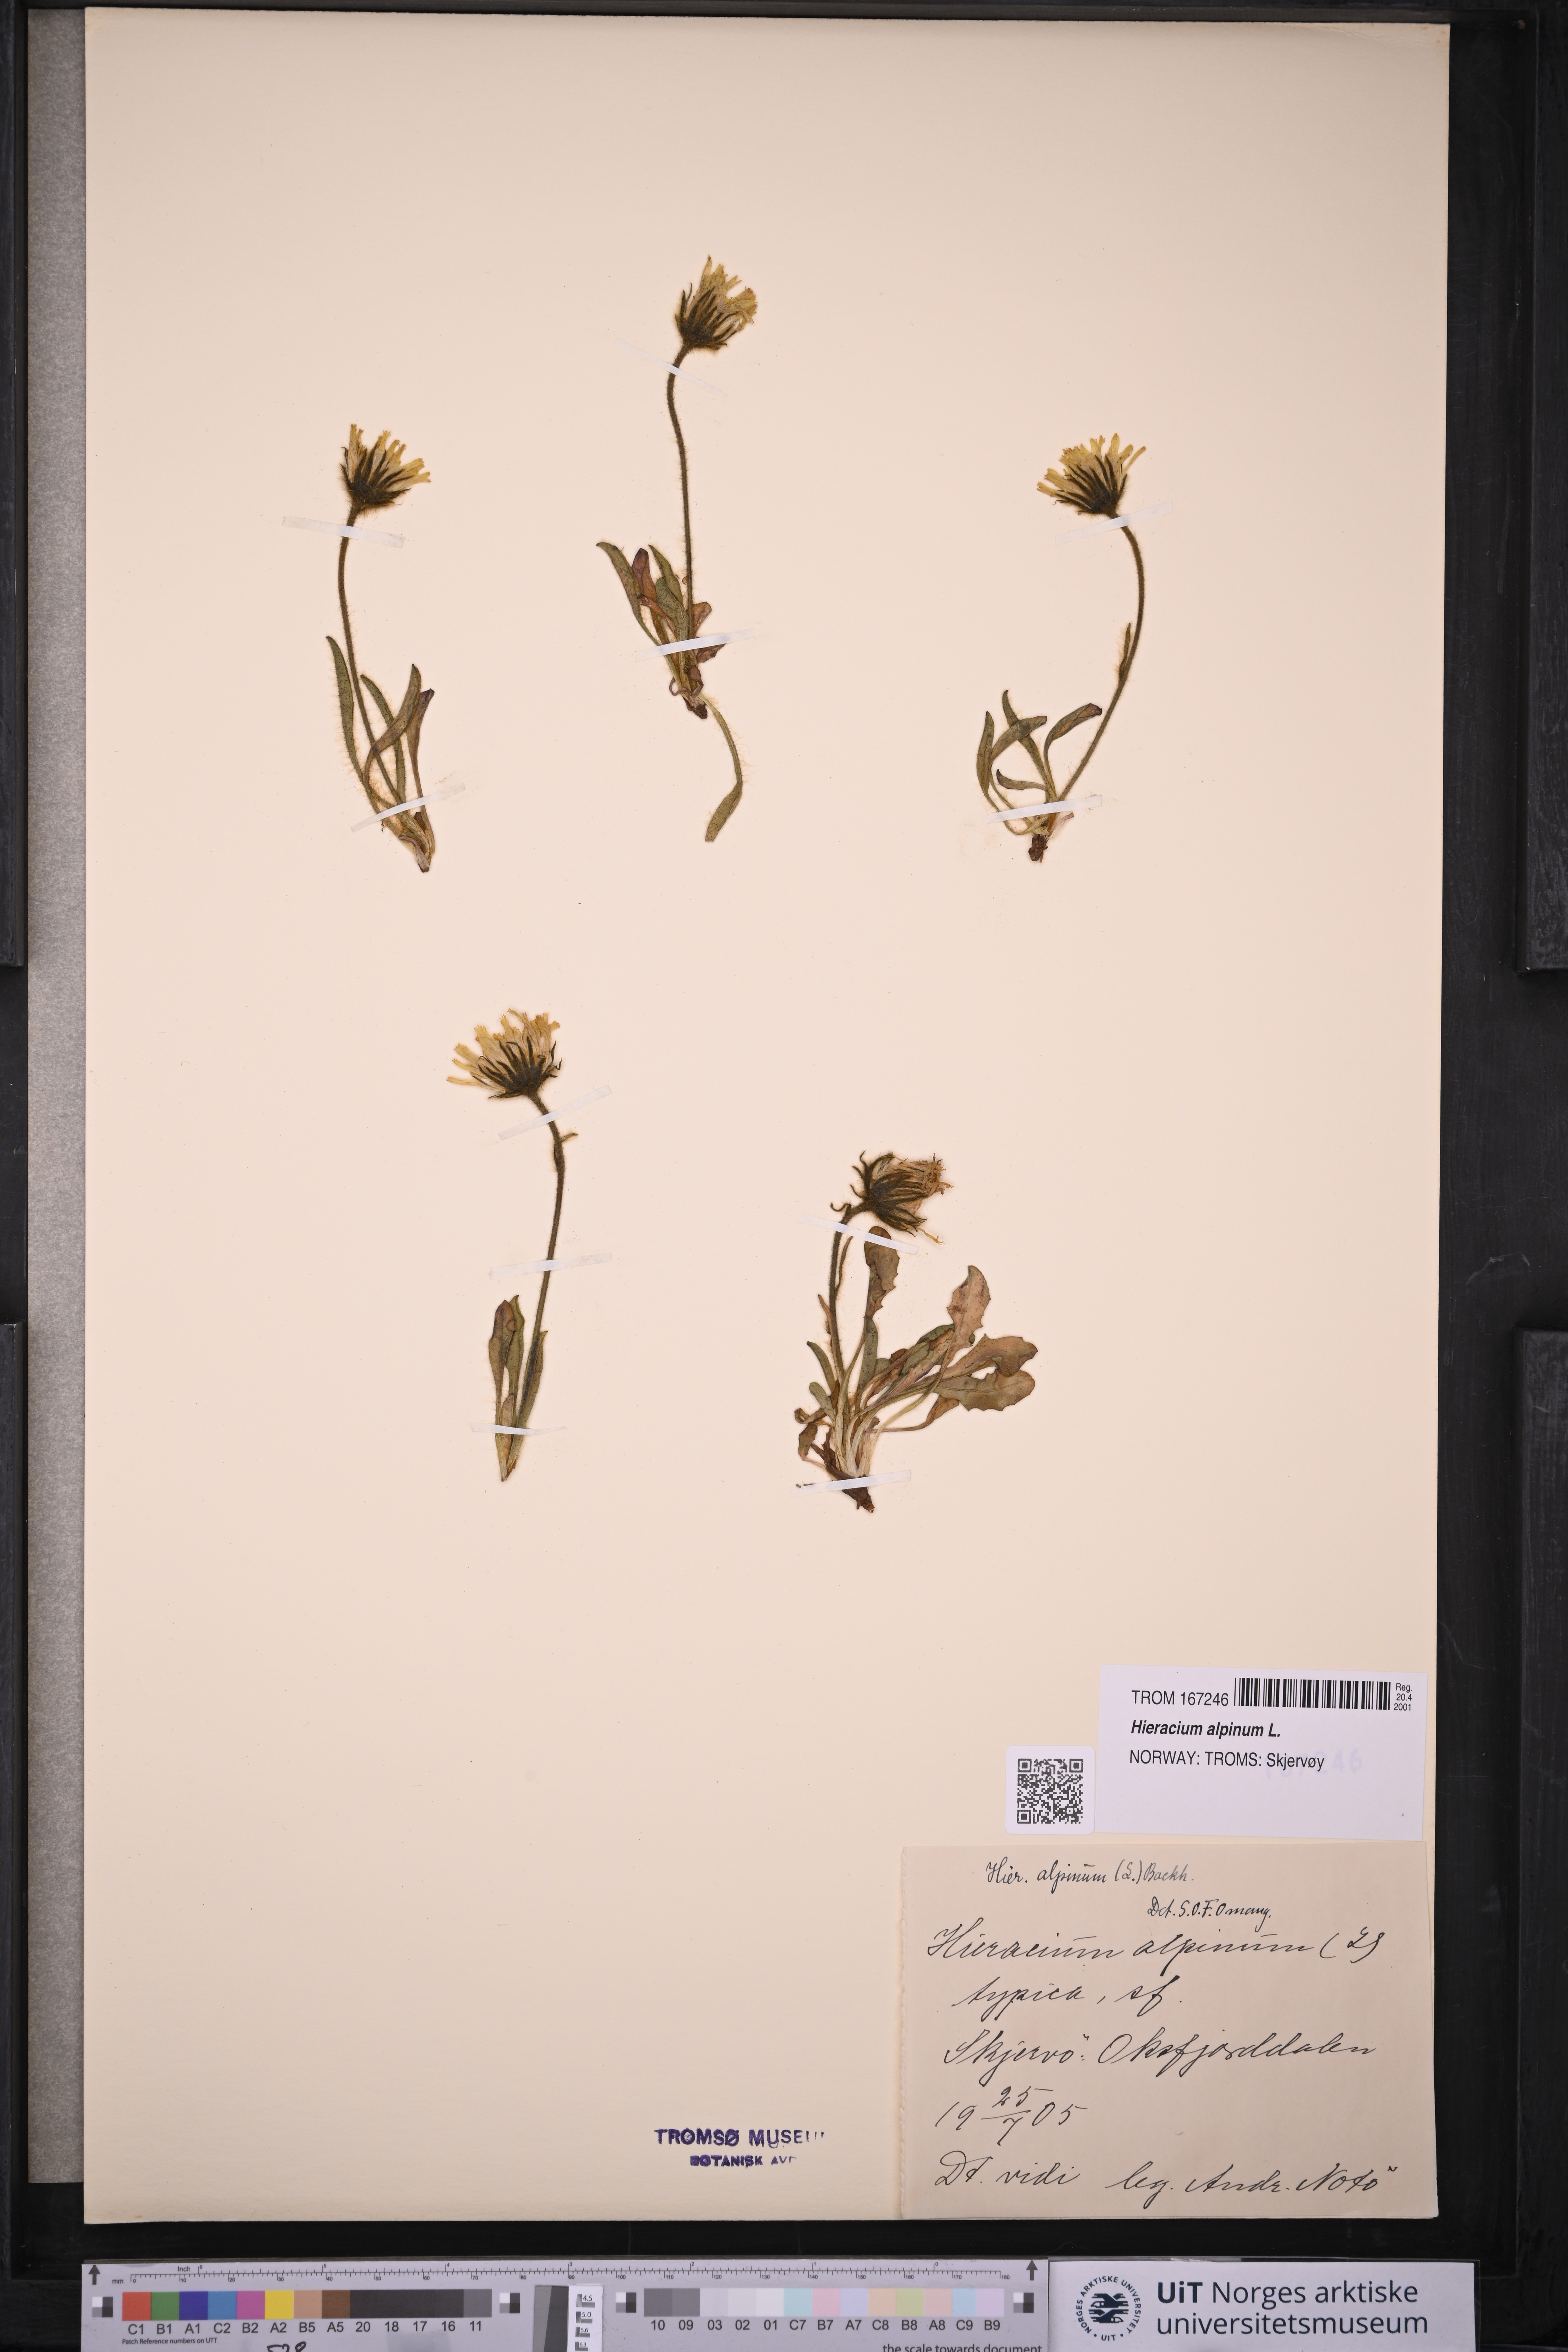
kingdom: Plantae
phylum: Tracheophyta
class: Magnoliopsida
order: Asterales
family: Asteraceae
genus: Hieracium
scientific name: Hieracium alpinum
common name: Alpine hawkweed
